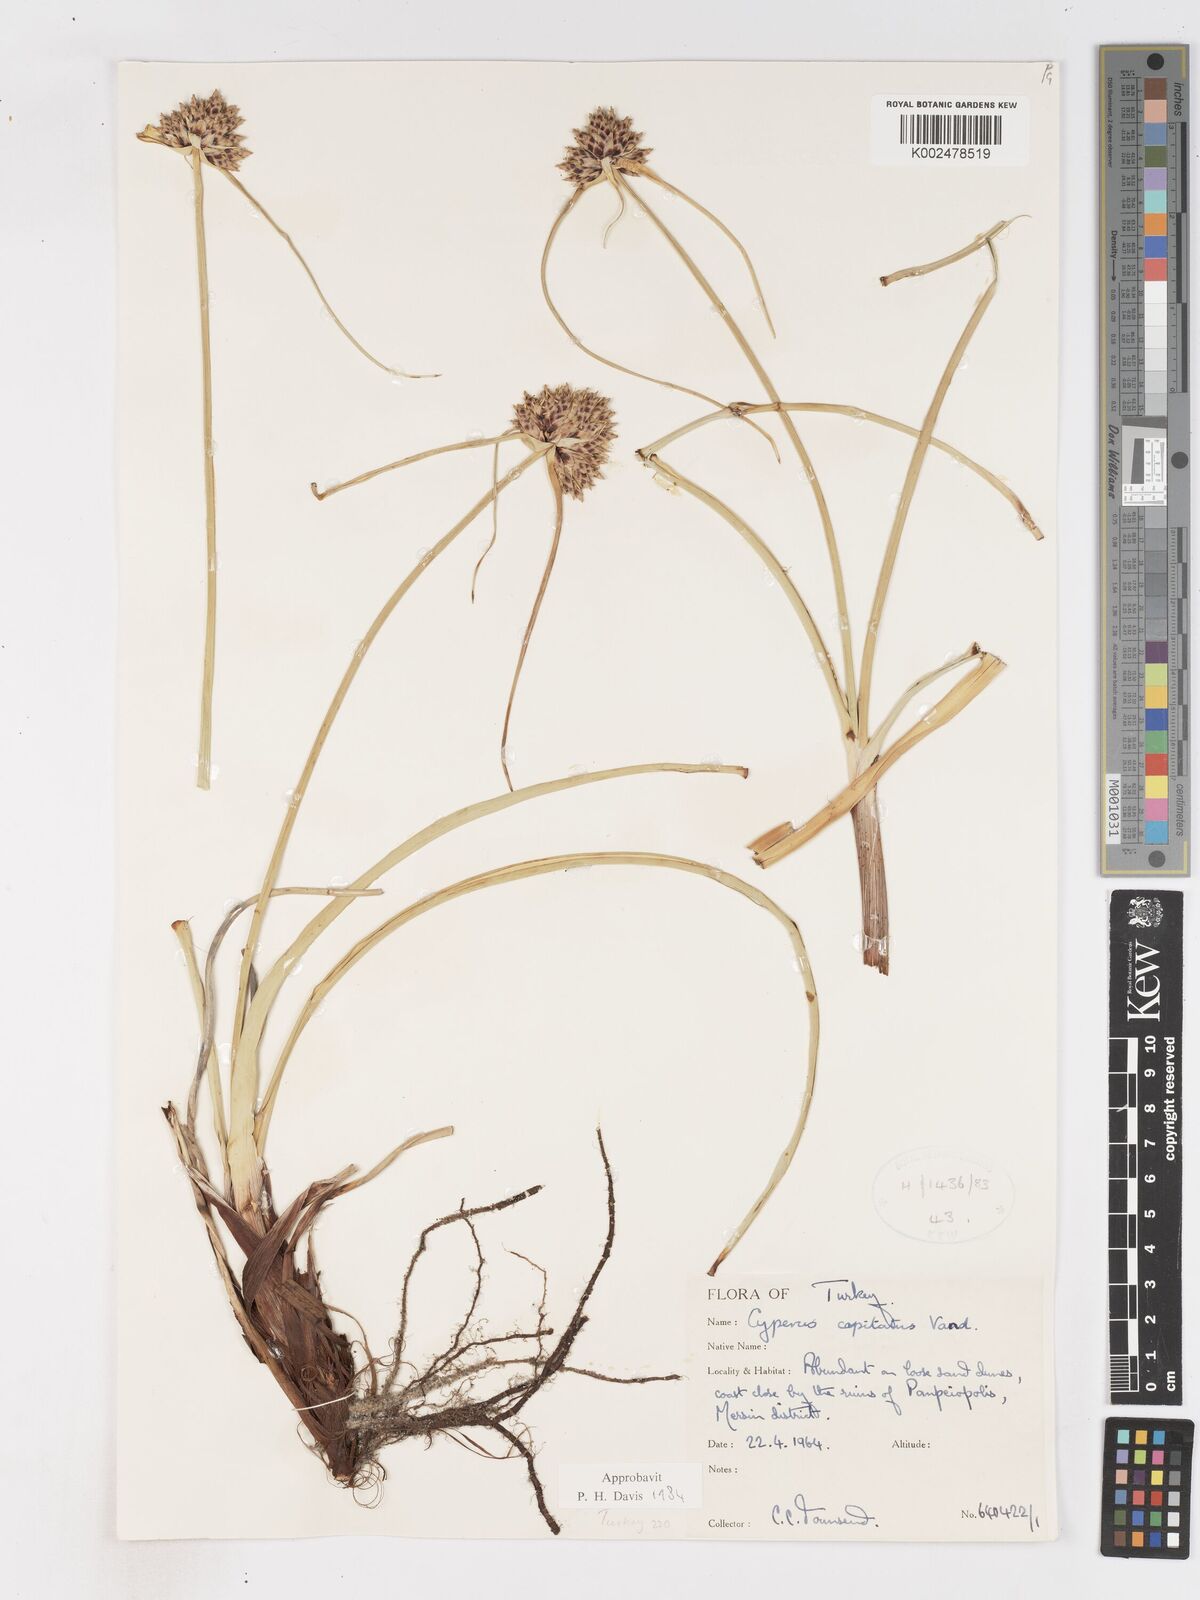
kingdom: Plantae
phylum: Tracheophyta
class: Liliopsida
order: Poales
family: Cyperaceae
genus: Cyperus
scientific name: Cyperus capitatus
